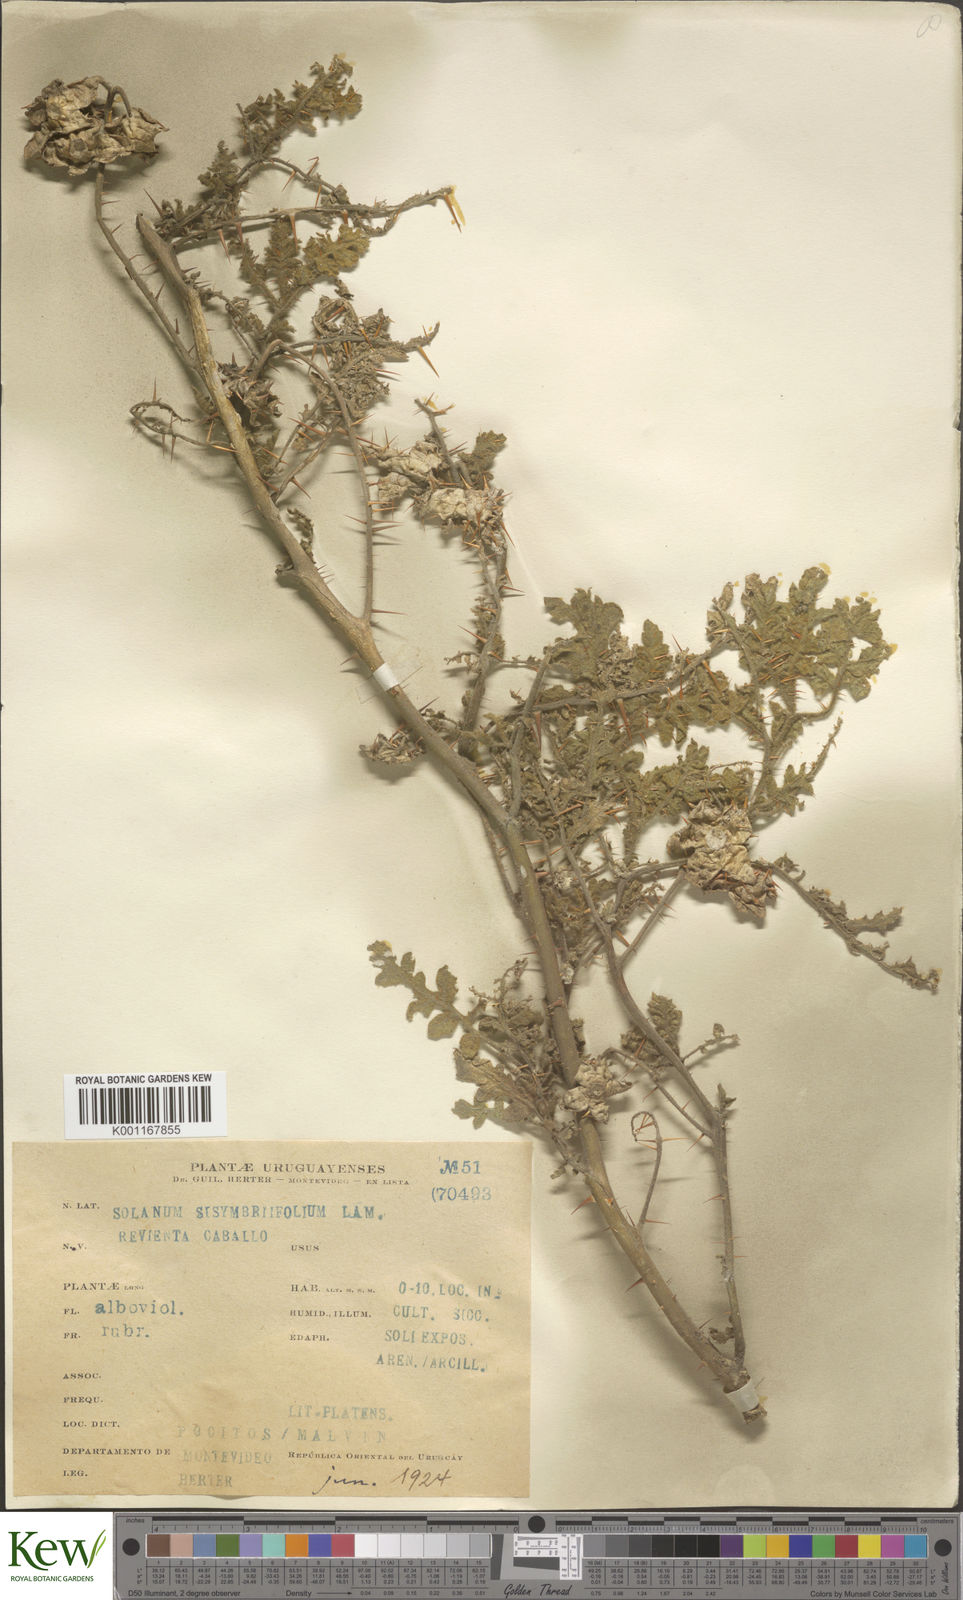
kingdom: Plantae
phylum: Tracheophyta
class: Magnoliopsida
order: Solanales
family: Solanaceae
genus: Solanum
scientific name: Solanum sisymbriifolium
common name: Red buffalo-bur
